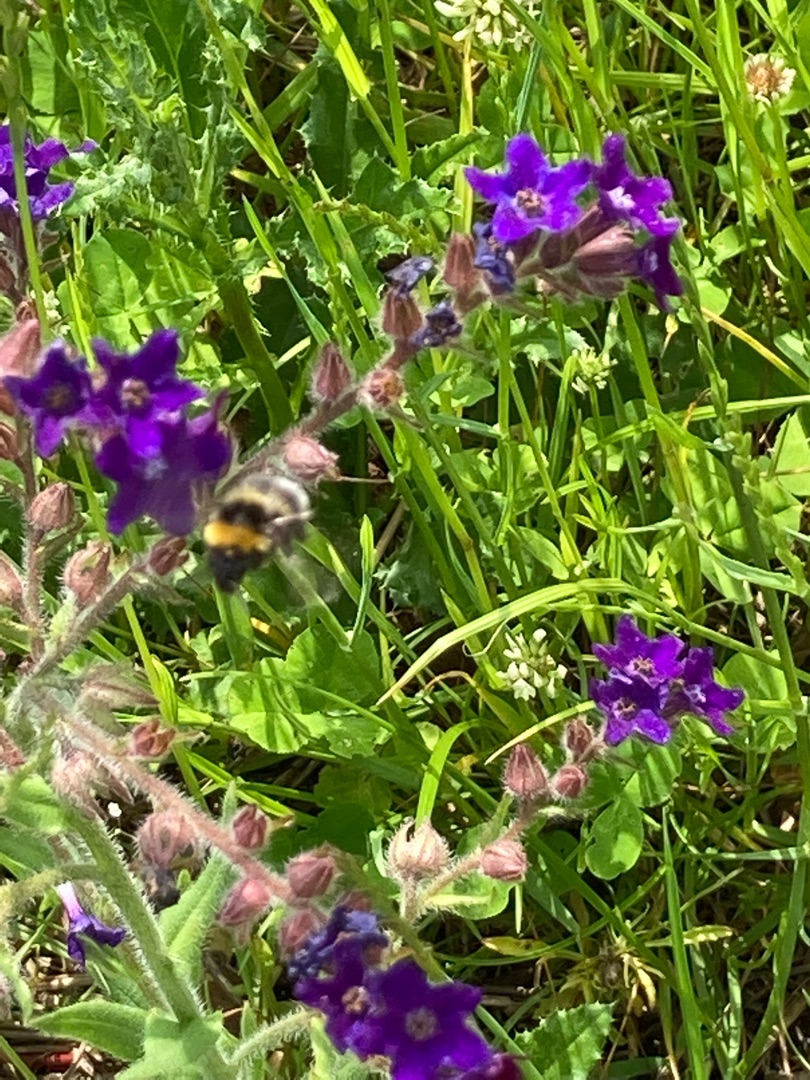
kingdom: Plantae
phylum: Tracheophyta
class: Magnoliopsida
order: Boraginales
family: Boraginaceae
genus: Anchusa
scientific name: Anchusa officinalis
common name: Læge-oksetunge
